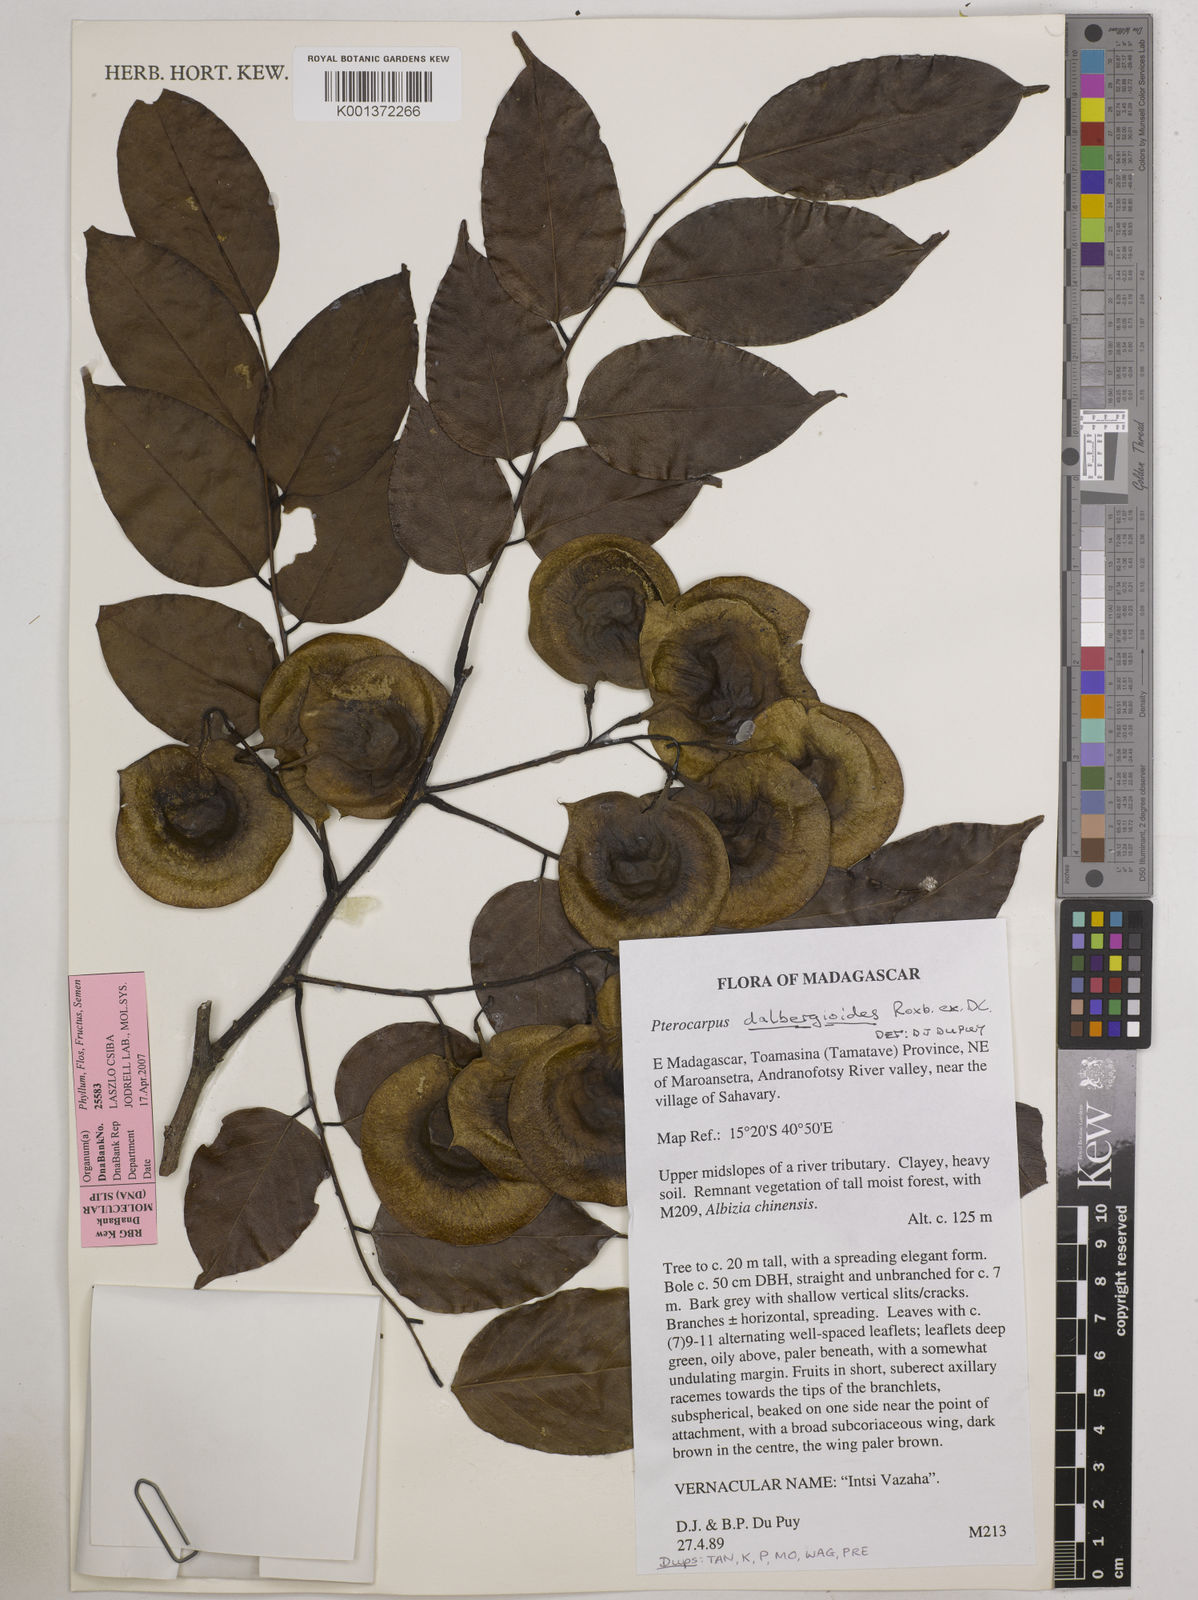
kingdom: Plantae
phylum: Tracheophyta
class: Magnoliopsida
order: Fabales
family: Fabaceae
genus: Pterocarpus
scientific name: Pterocarpus dalbergioides
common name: Andaman redwood
